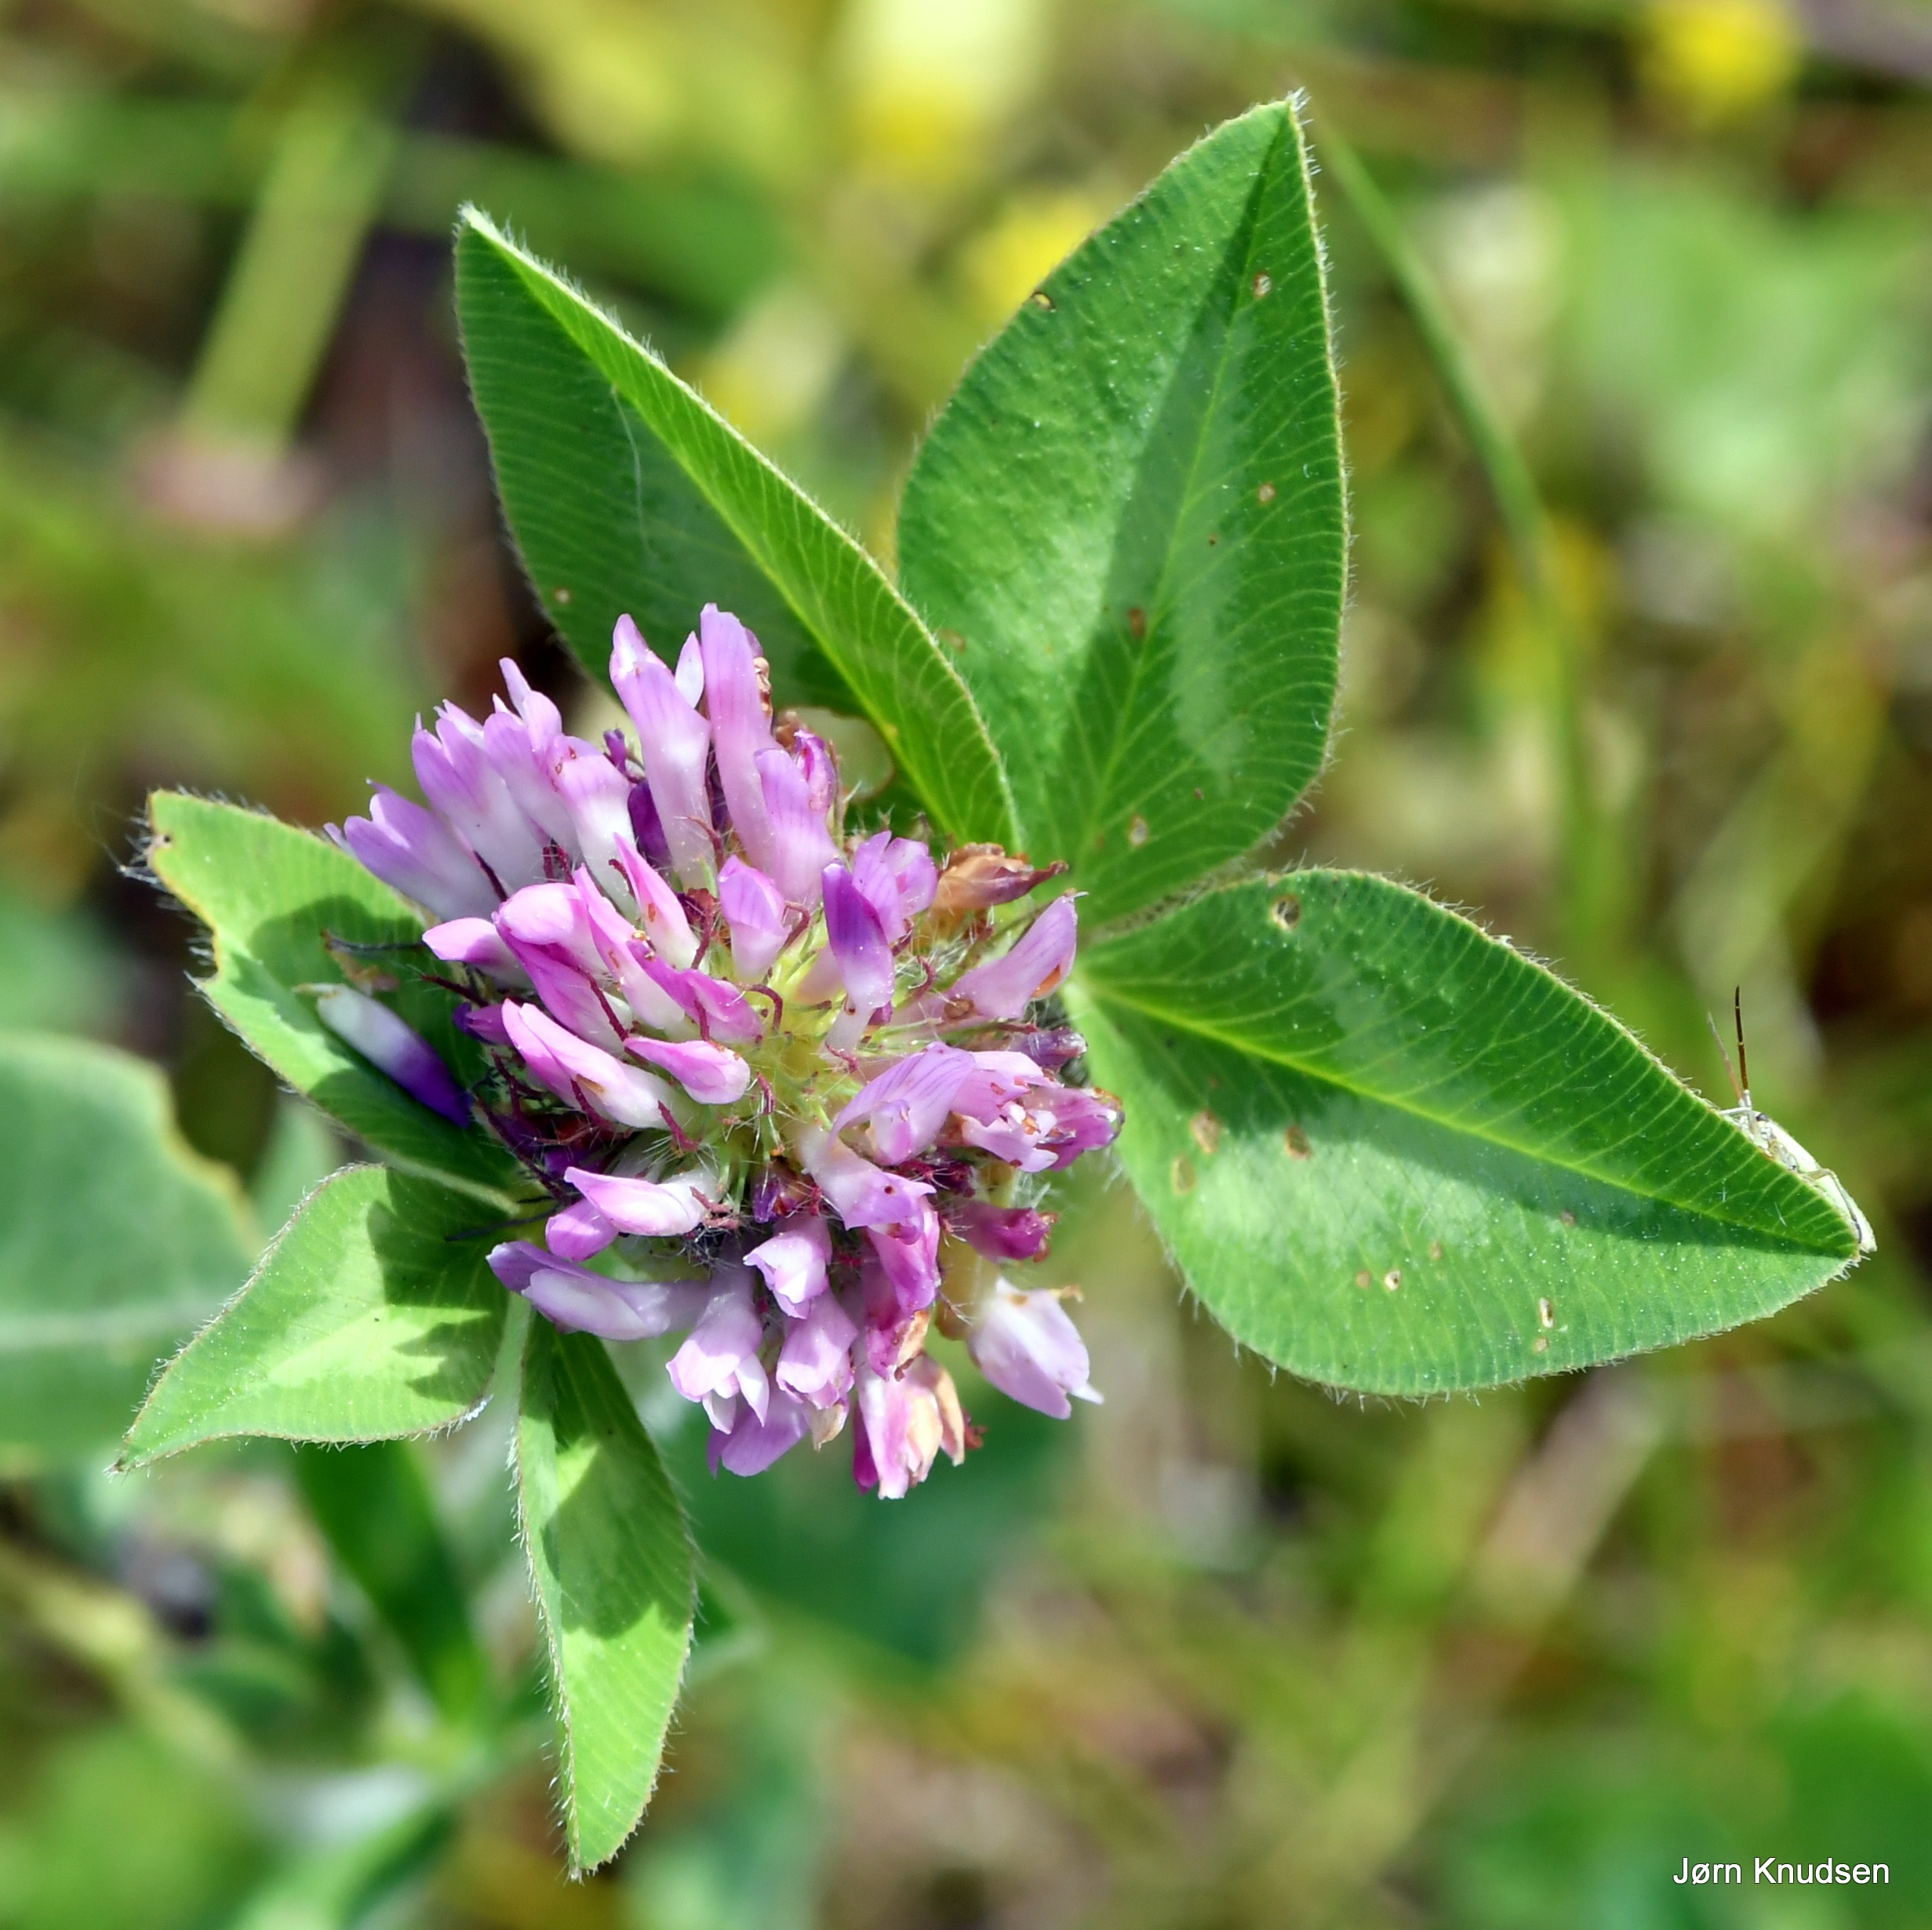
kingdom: Plantae
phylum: Tracheophyta
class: Magnoliopsida
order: Fabales
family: Fabaceae
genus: Trifolium
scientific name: Trifolium pratense
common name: Rød-kløver
